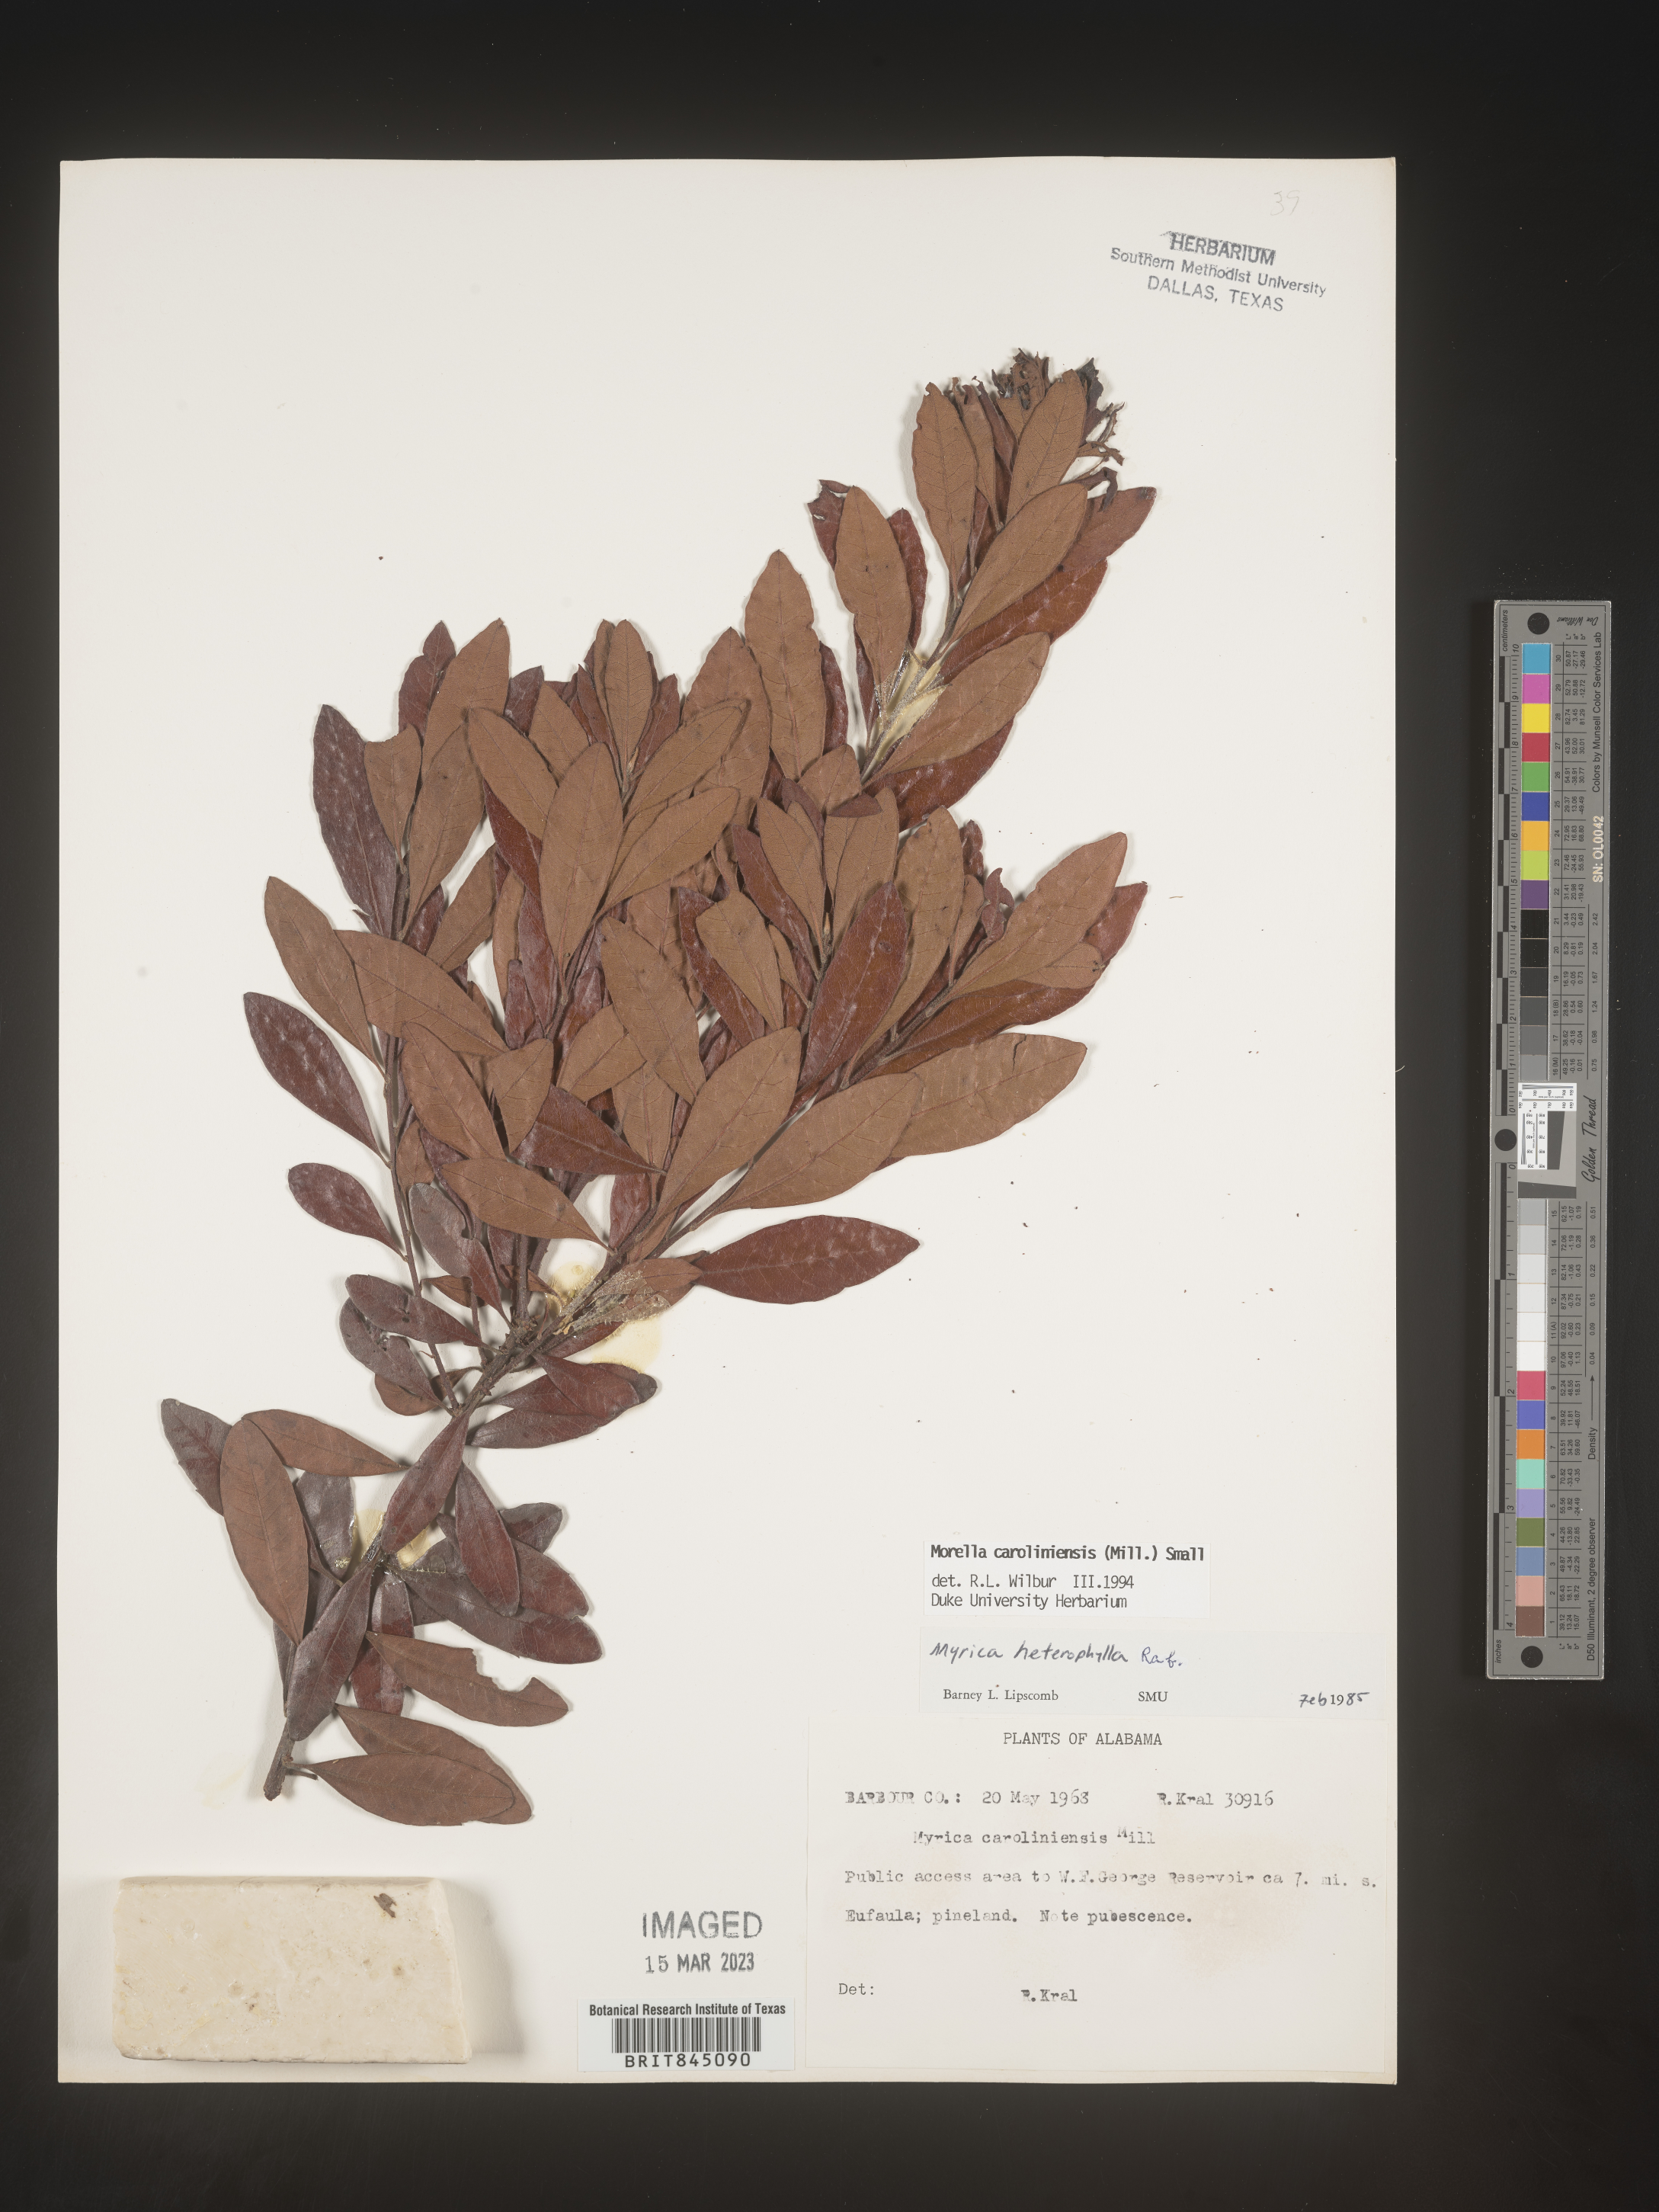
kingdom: Plantae
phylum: Tracheophyta
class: Magnoliopsida
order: Fagales
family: Myricaceae
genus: Morella
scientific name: Morella caroliniensis
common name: Evergreen bayberry
